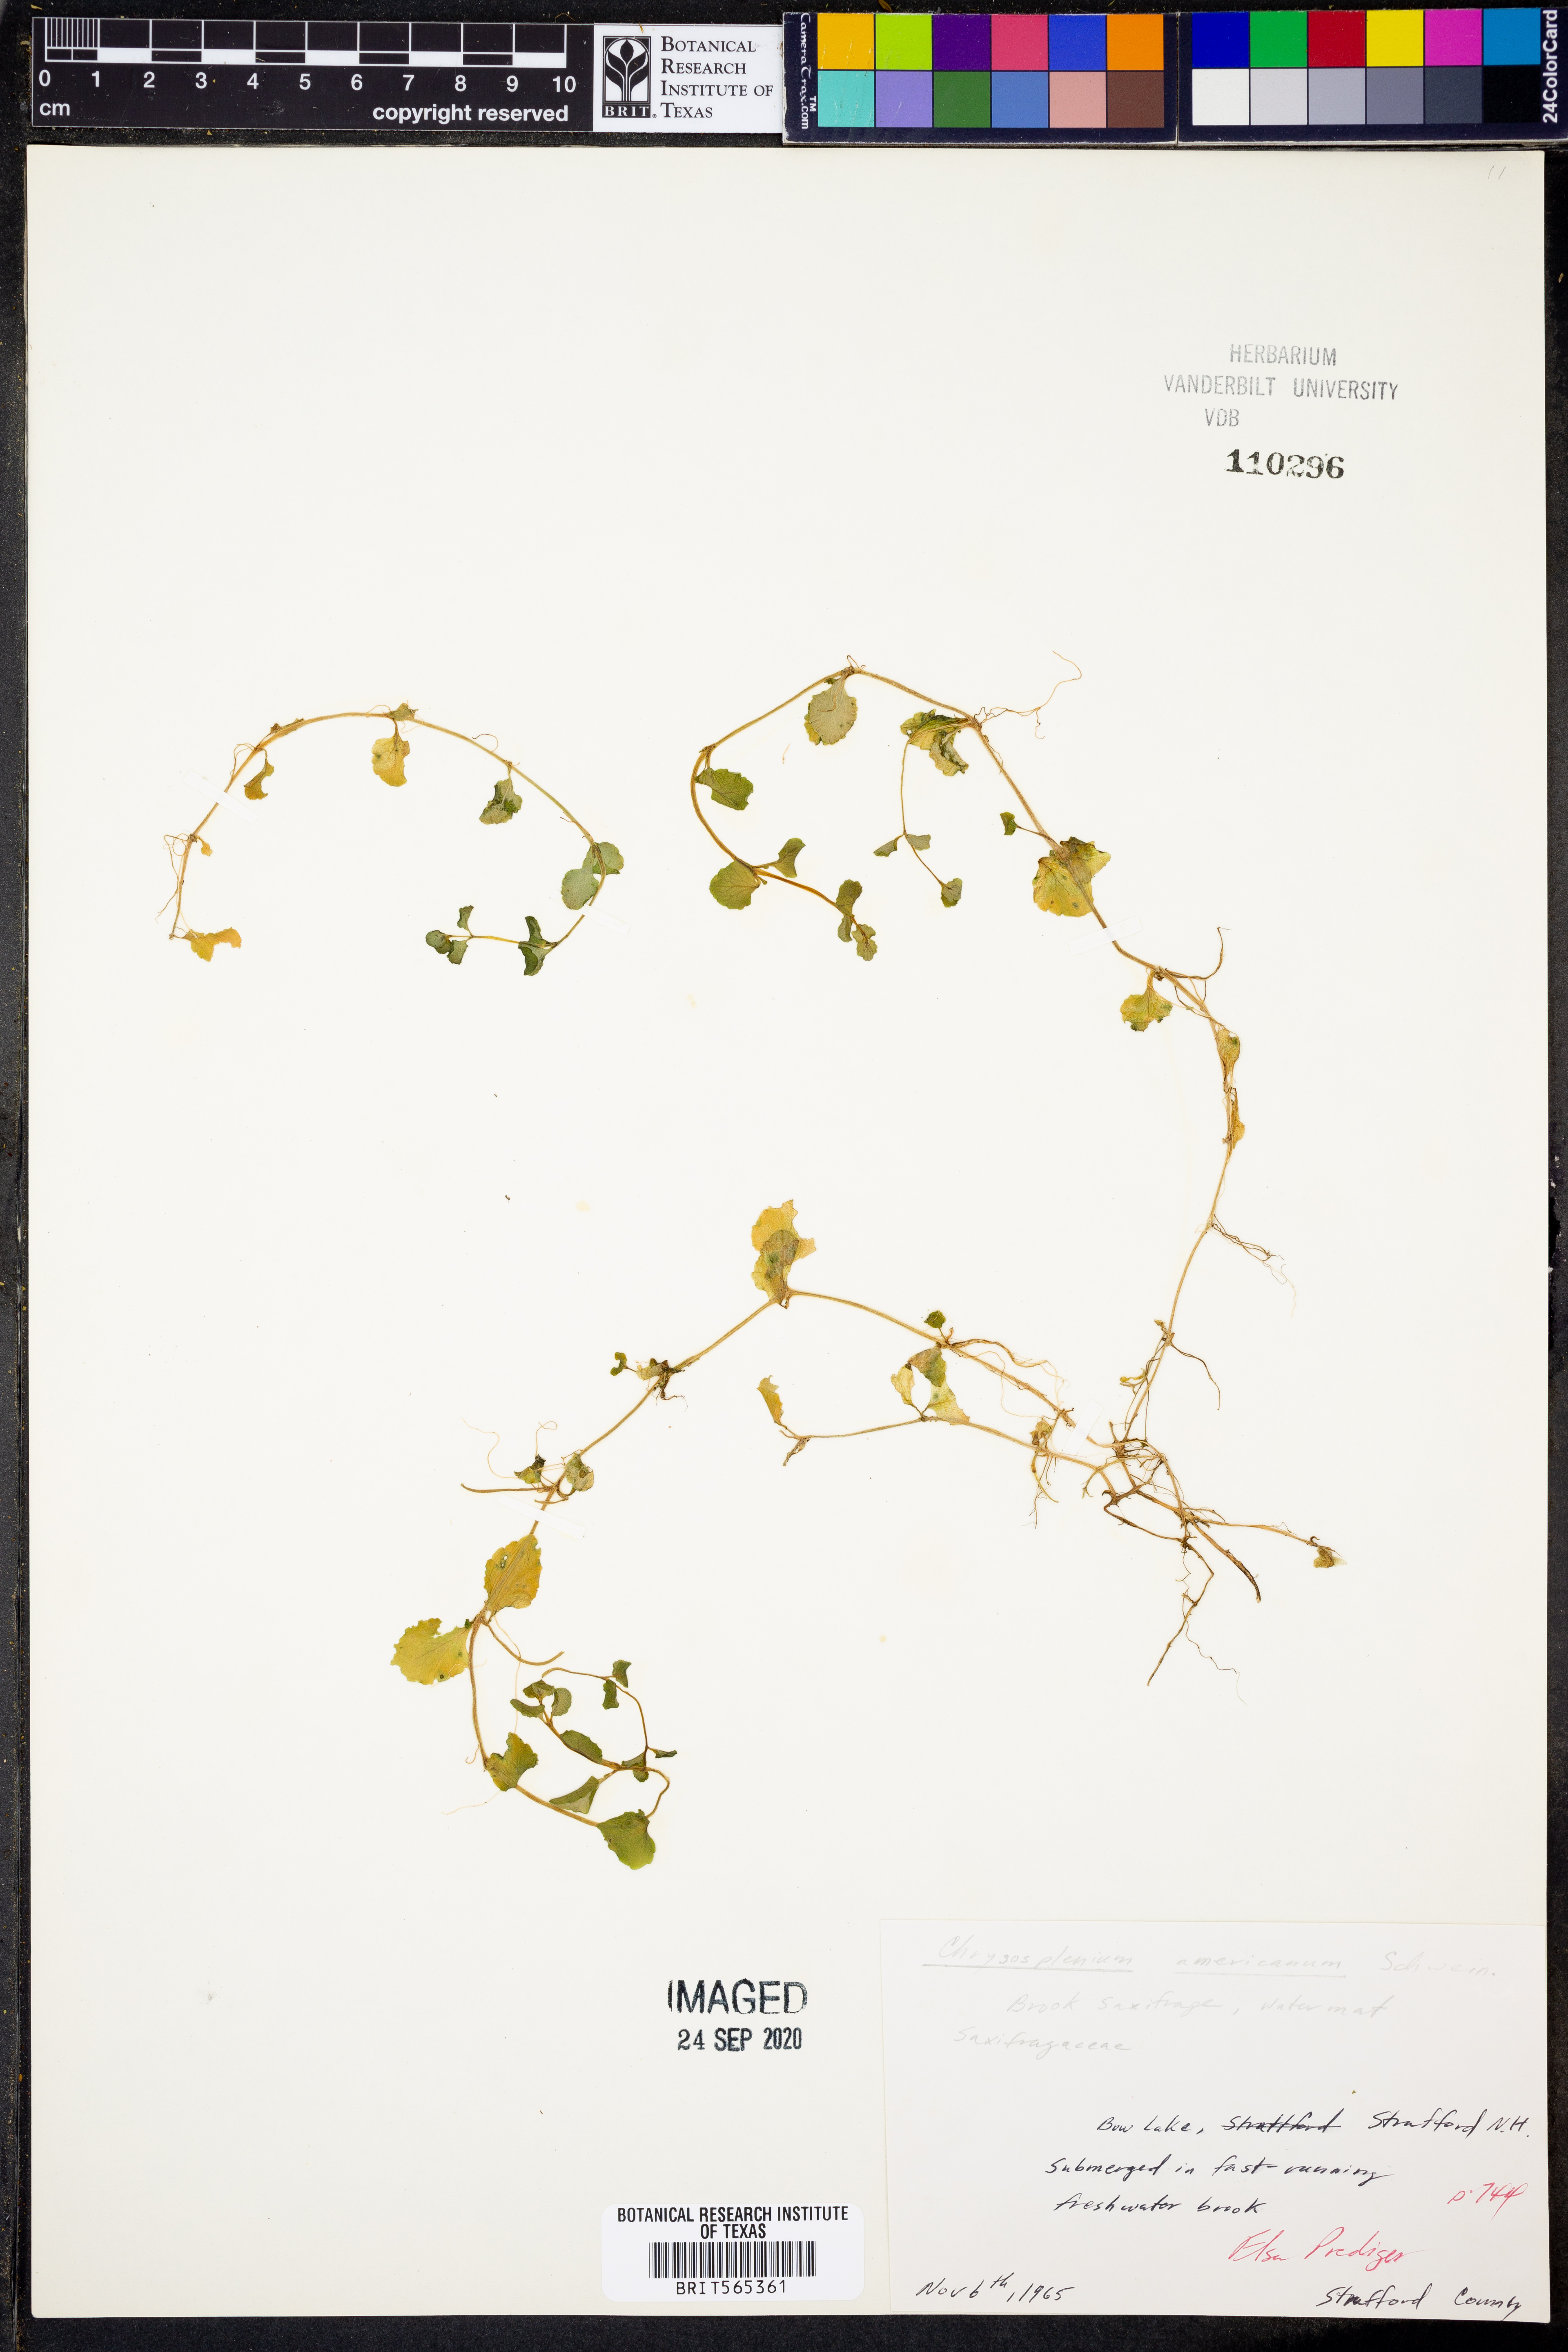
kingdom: Plantae
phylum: Tracheophyta
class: Magnoliopsida
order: Saxifragales
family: Saxifragaceae
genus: Chrysosplenium
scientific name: Chrysosplenium americanum
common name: American golden-saxifrage
